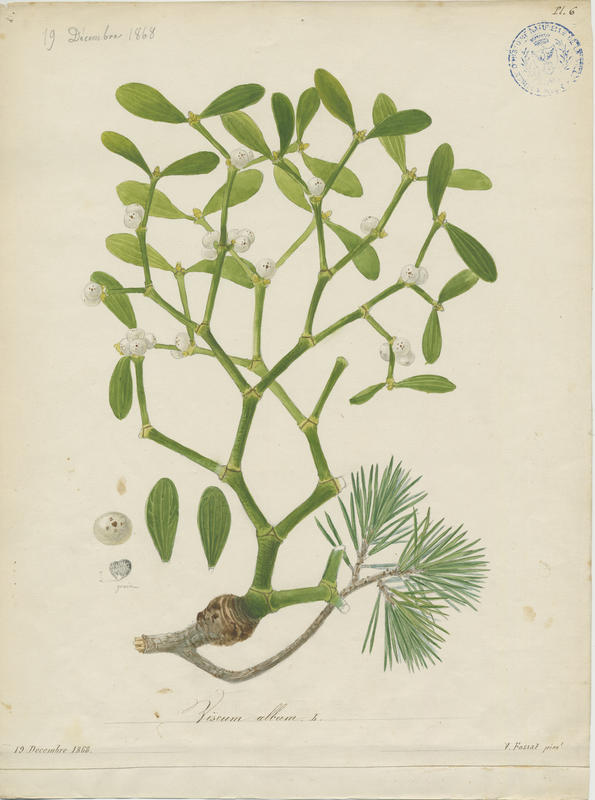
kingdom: Plantae
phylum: Tracheophyta
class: Magnoliopsida
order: Santalales
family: Viscaceae
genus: Viscum
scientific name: Viscum album
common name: Mistletoe
